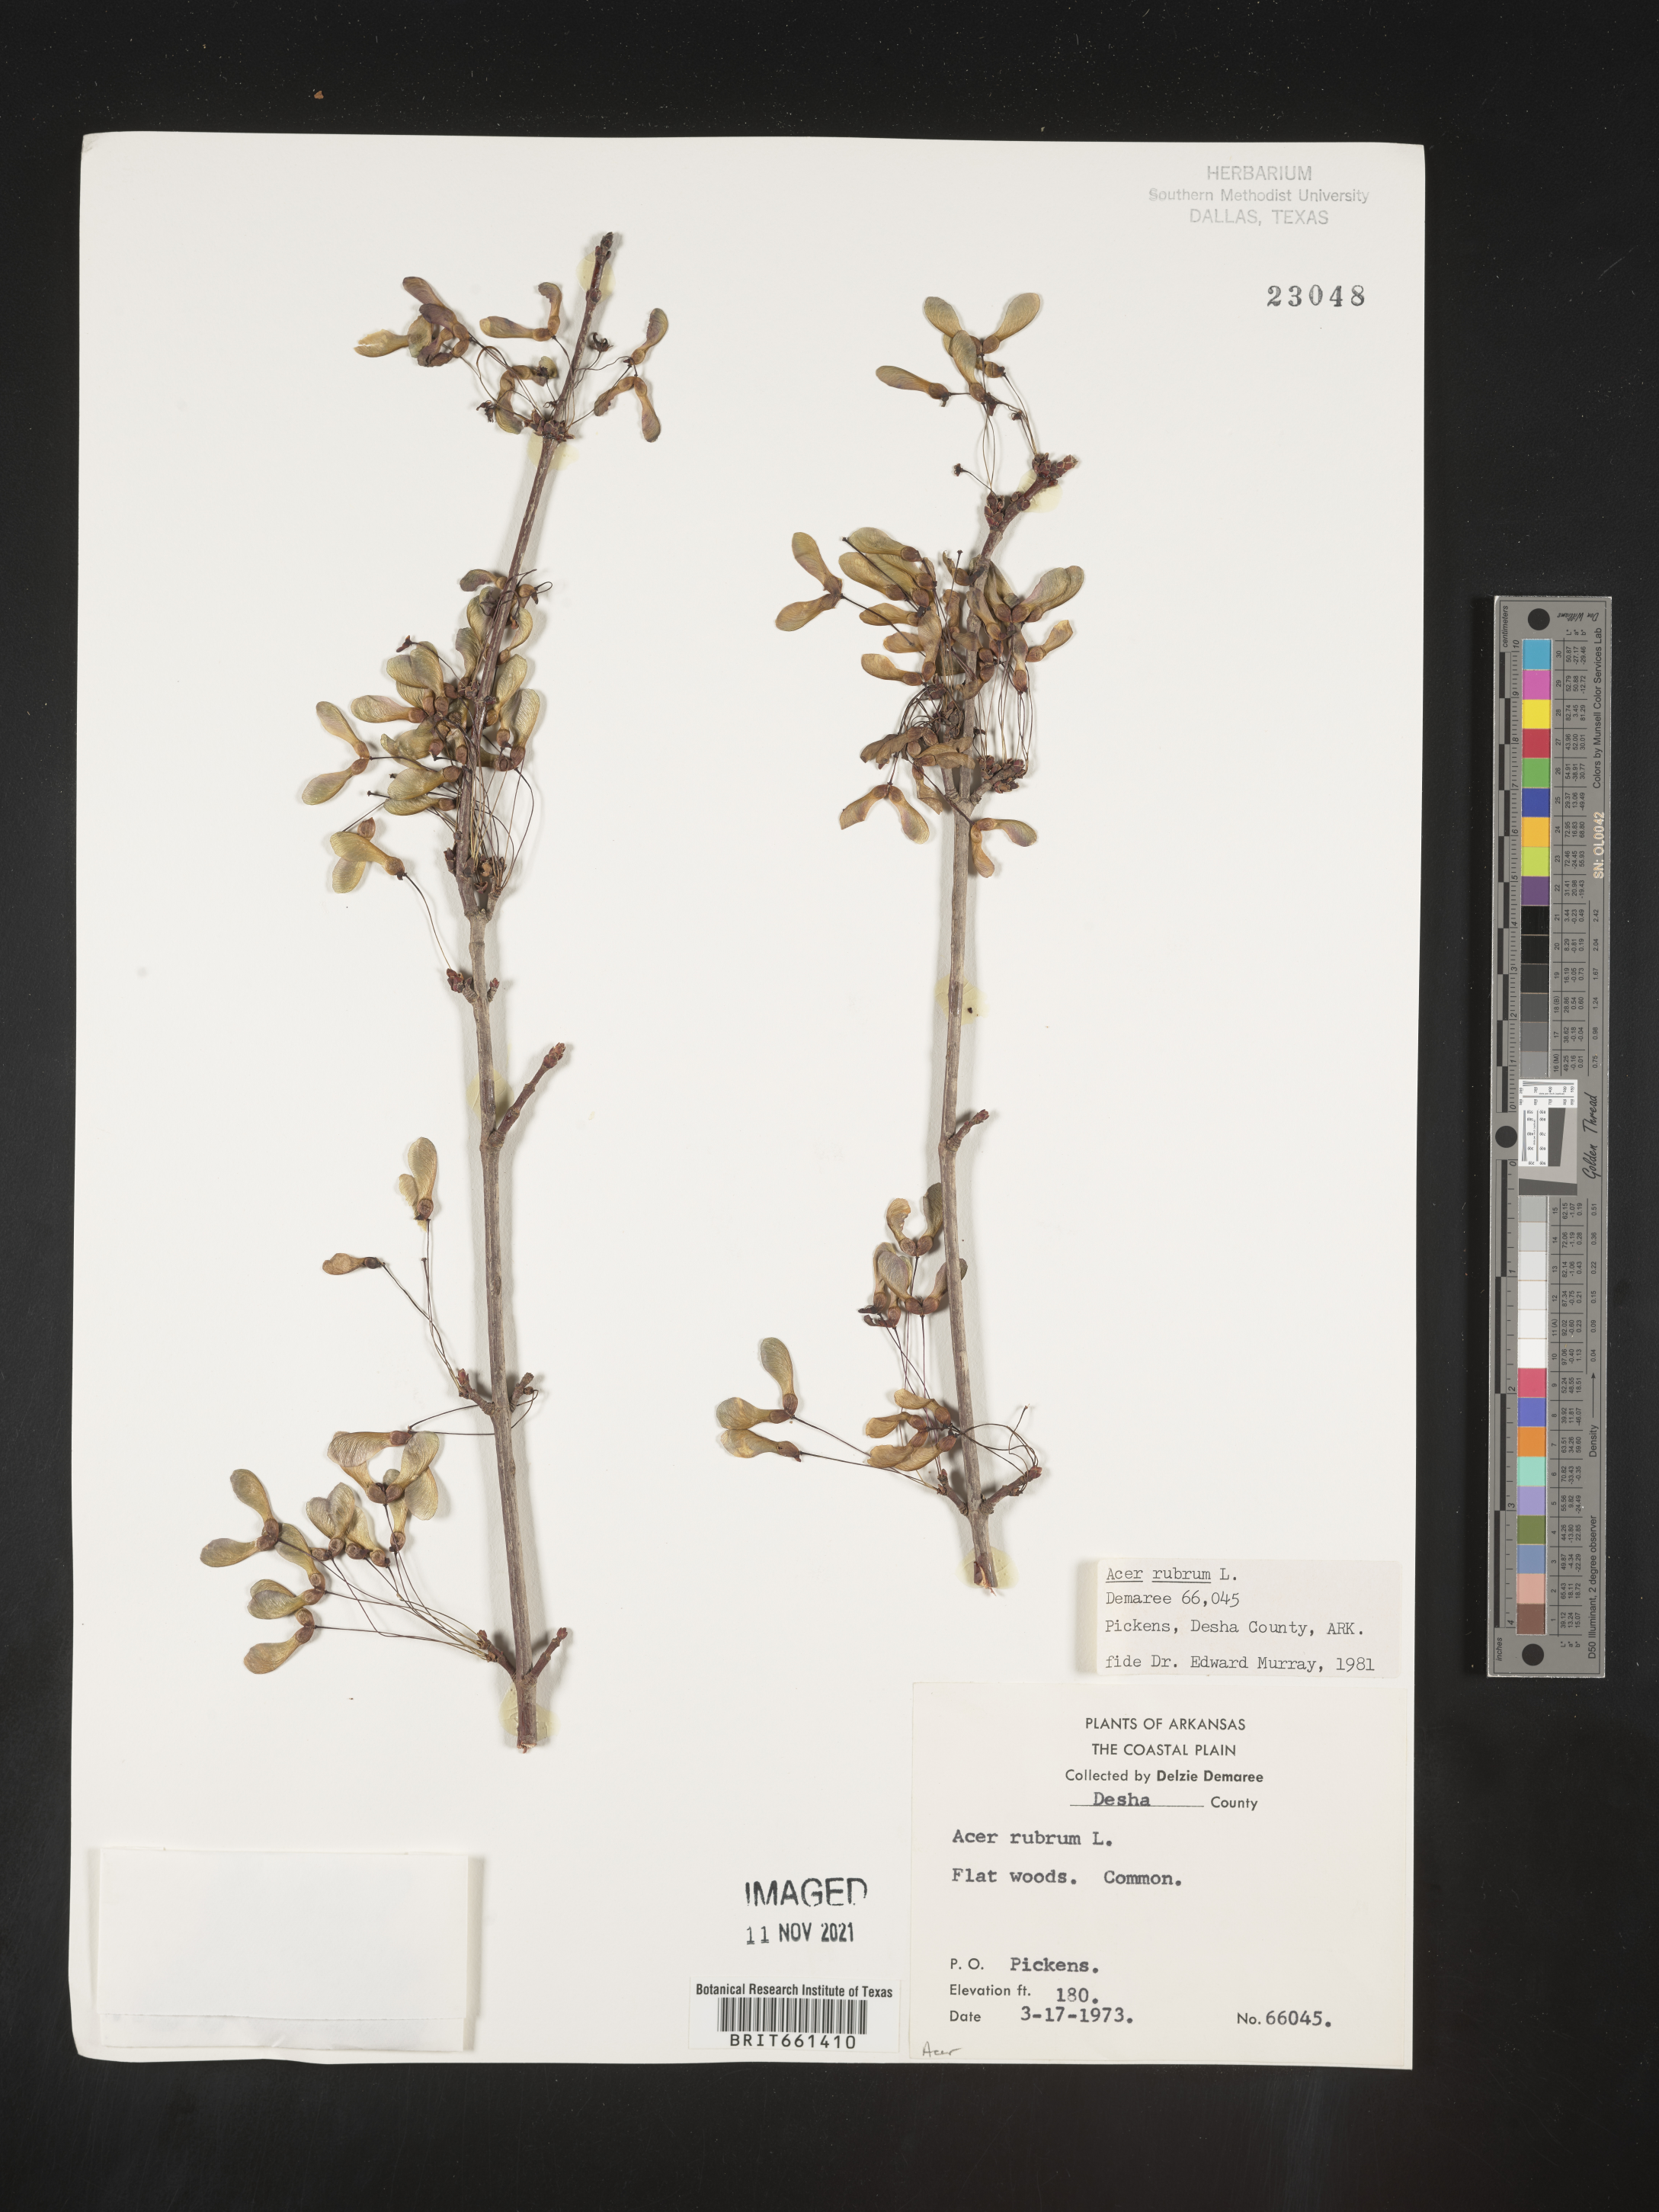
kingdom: Plantae
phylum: Tracheophyta
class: Magnoliopsida
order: Sapindales
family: Sapindaceae
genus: Acer
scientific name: Acer rubrum
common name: Red maple
